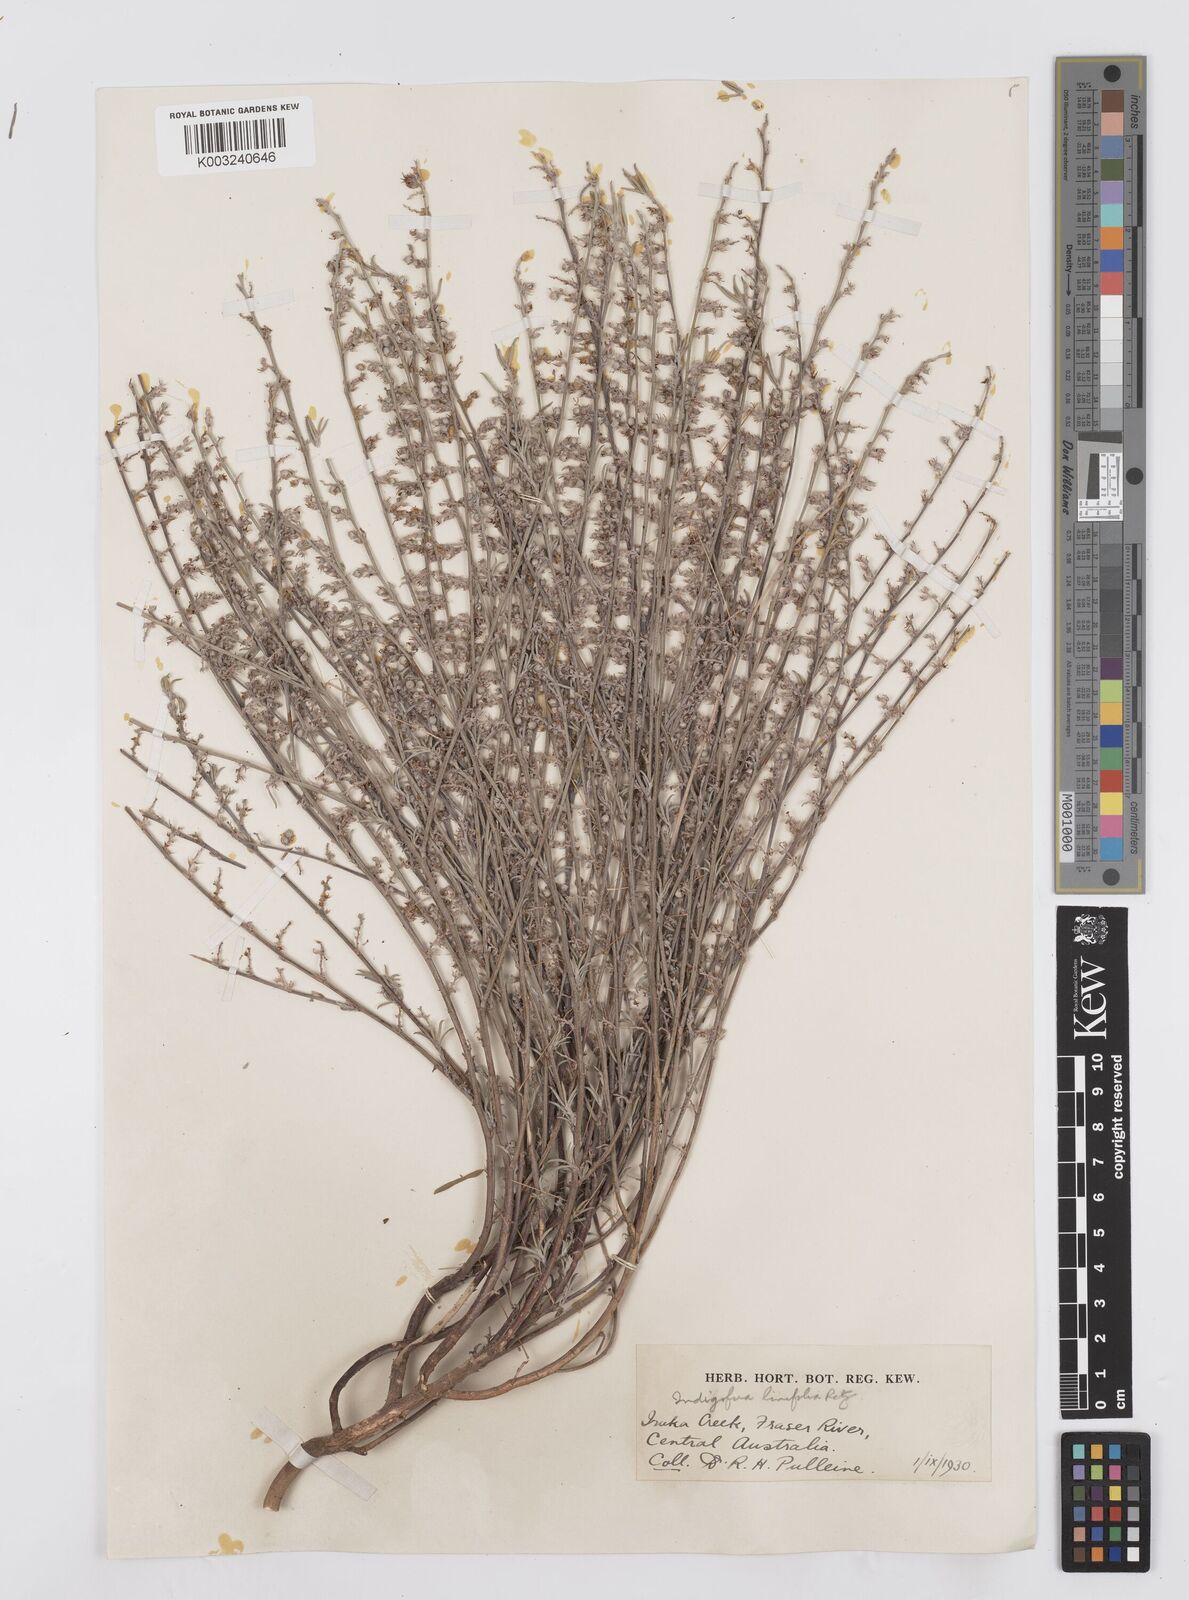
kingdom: Plantae
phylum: Tracheophyta
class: Magnoliopsida
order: Fabales
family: Fabaceae
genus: Indigofera
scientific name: Indigofera linifolia
